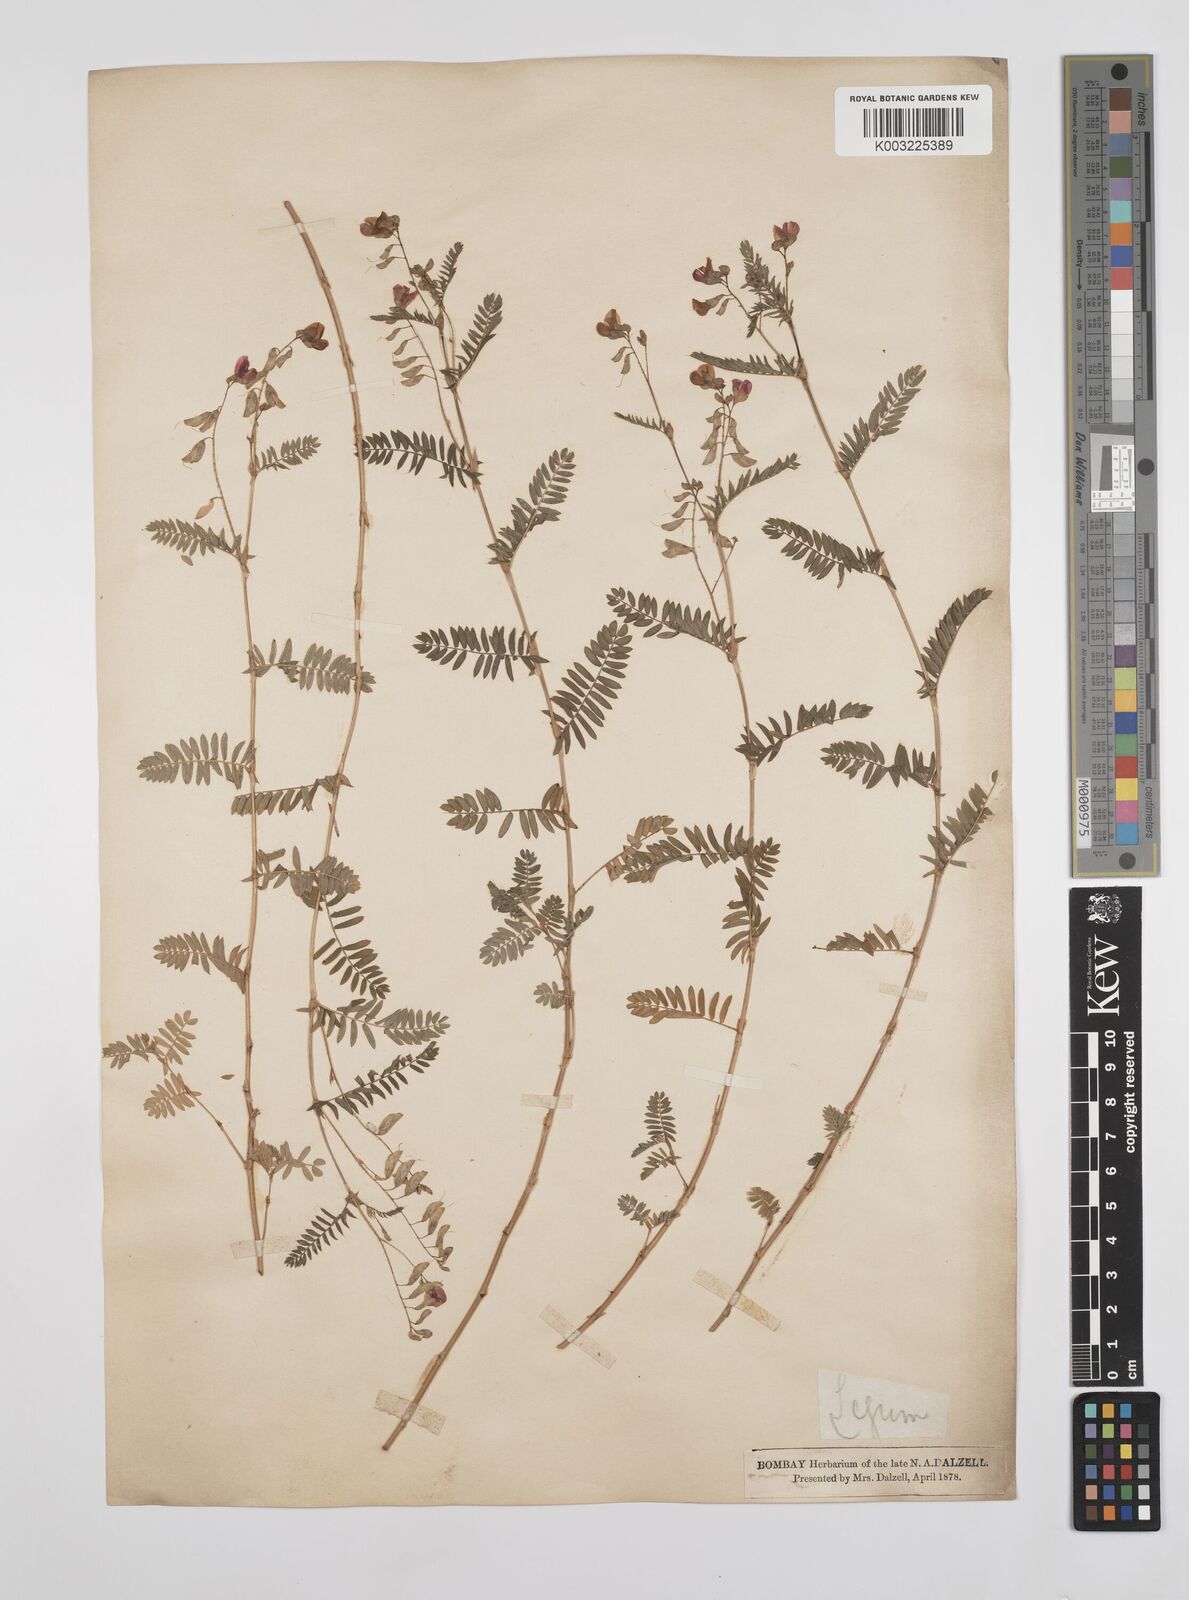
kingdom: Plantae
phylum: Tracheophyta
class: Magnoliopsida
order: Fabales
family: Fabaceae
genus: Smithia
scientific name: Smithia purpurea
